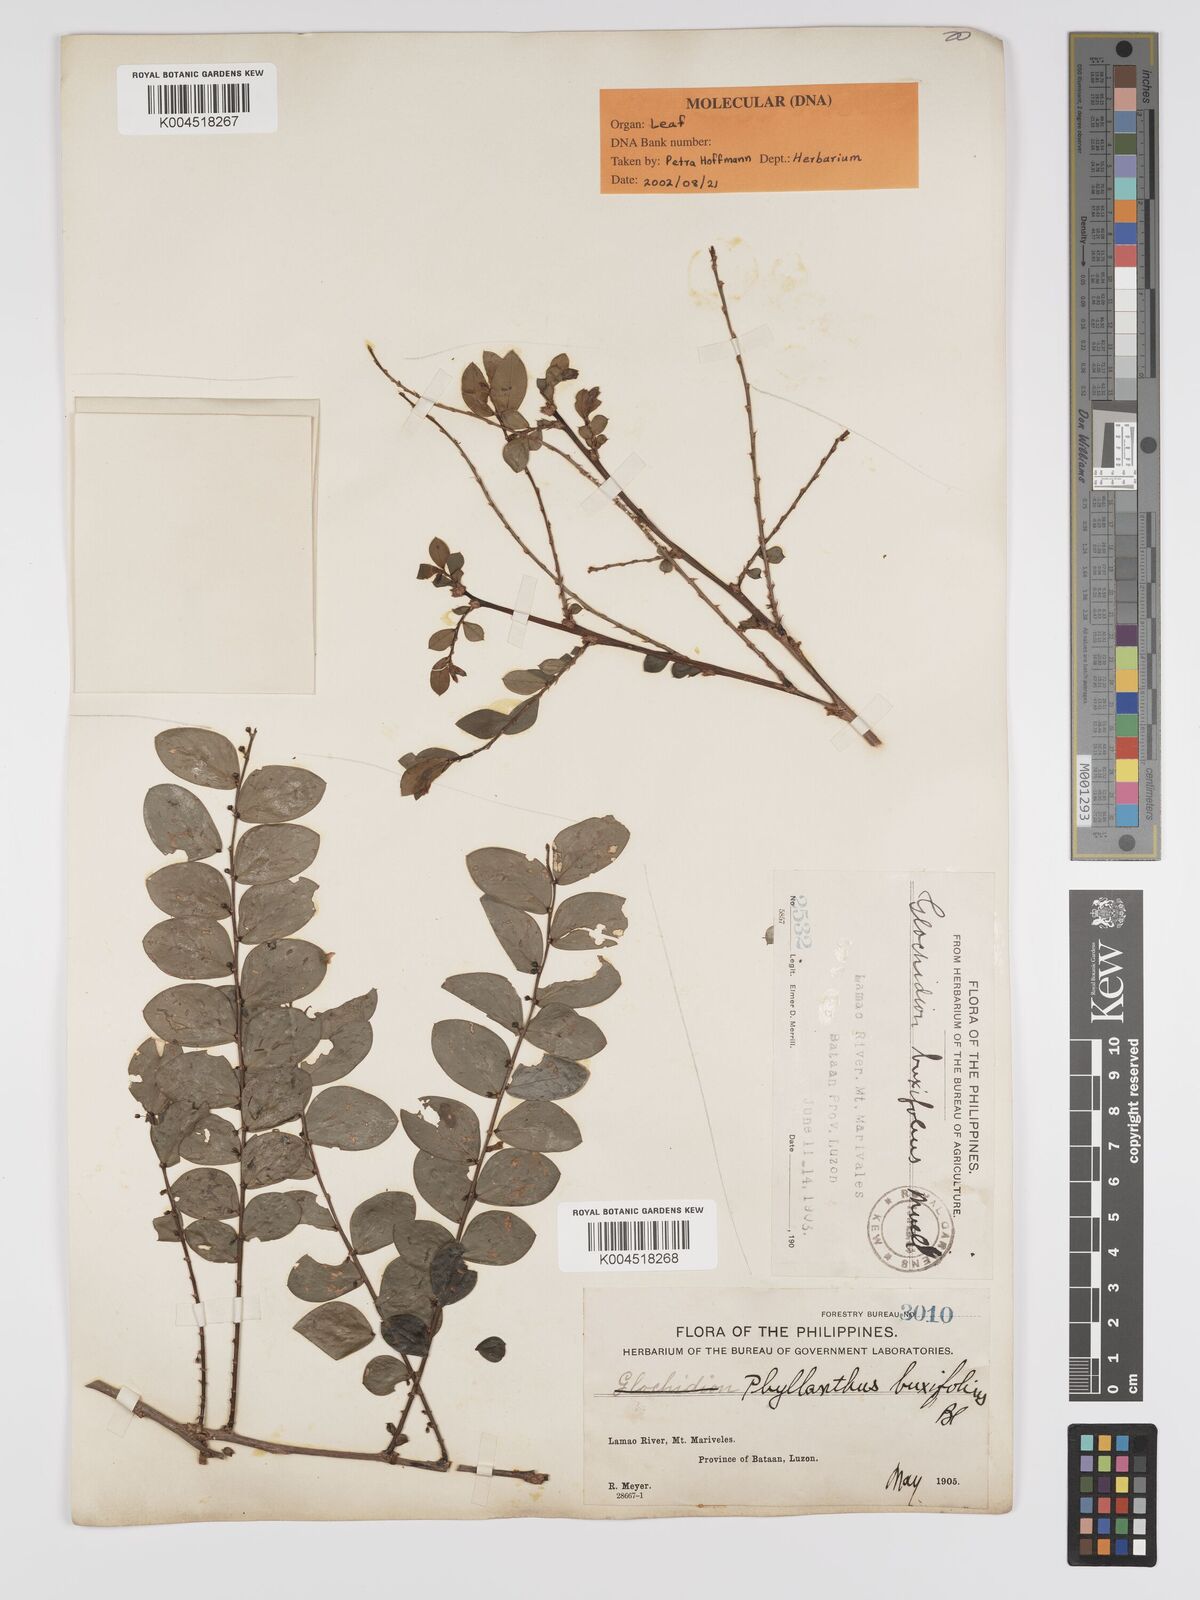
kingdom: Plantae
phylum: Tracheophyta
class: Magnoliopsida
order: Malpighiales
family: Phyllanthaceae
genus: Phyllanthus
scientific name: Phyllanthus buxifolius
